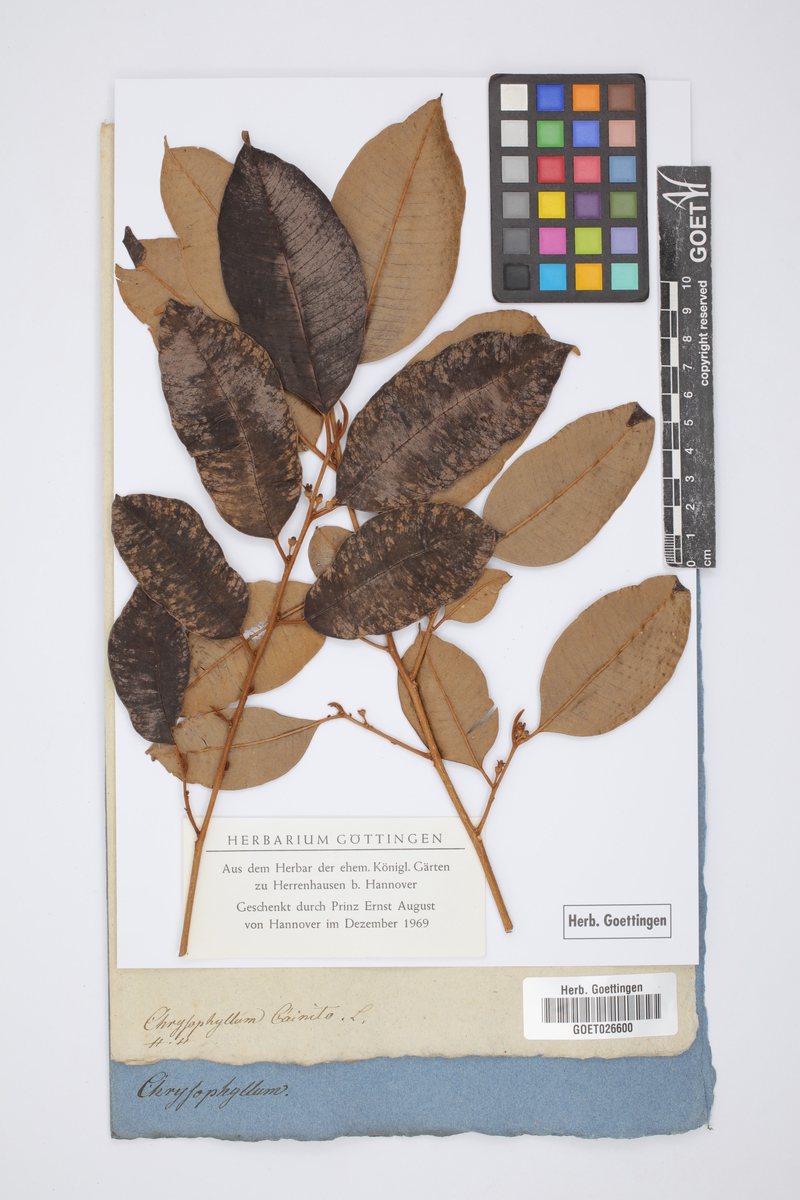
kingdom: Plantae
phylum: Tracheophyta
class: Magnoliopsida
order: Ericales
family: Sapotaceae
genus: Chrysophyllum
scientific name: Chrysophyllum cainito
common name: Star-apple
